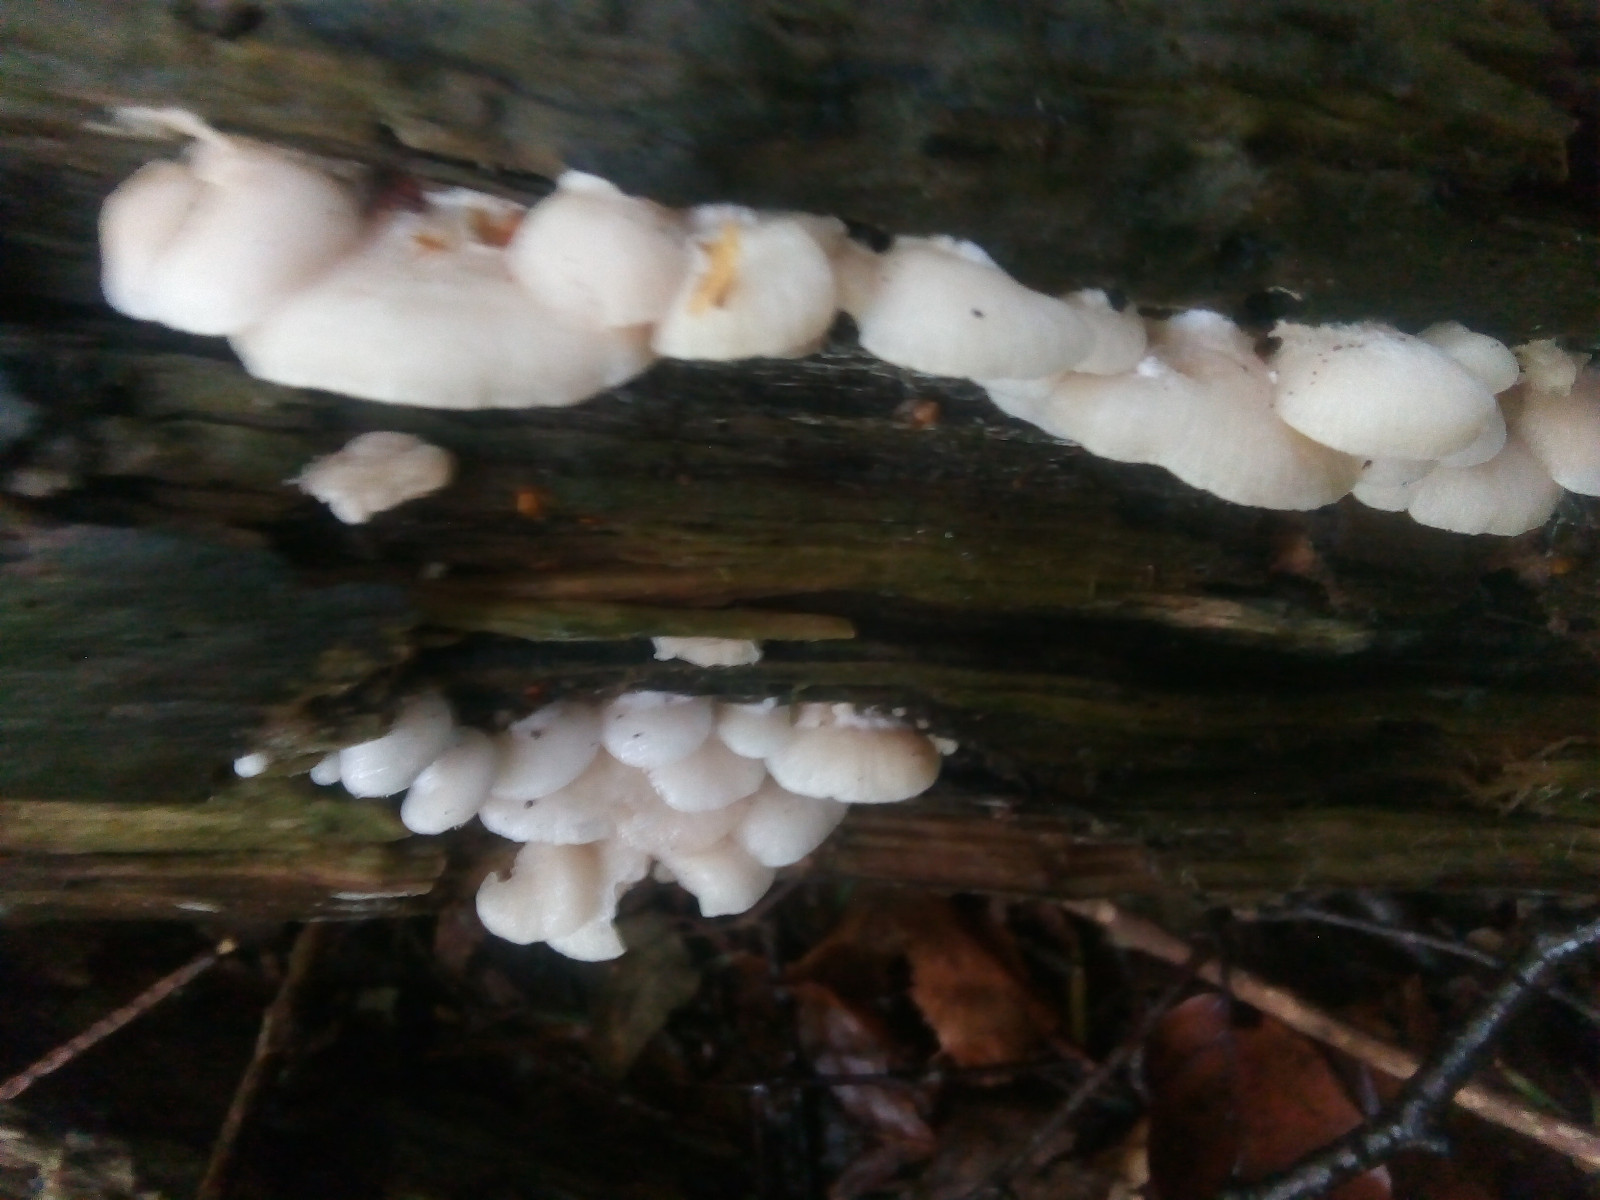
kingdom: Fungi
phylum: Basidiomycota
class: Agaricomycetes
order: Agaricales
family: Entolomataceae
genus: Clitopilus
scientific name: Clitopilus hobsonii
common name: Miller's oysterling
